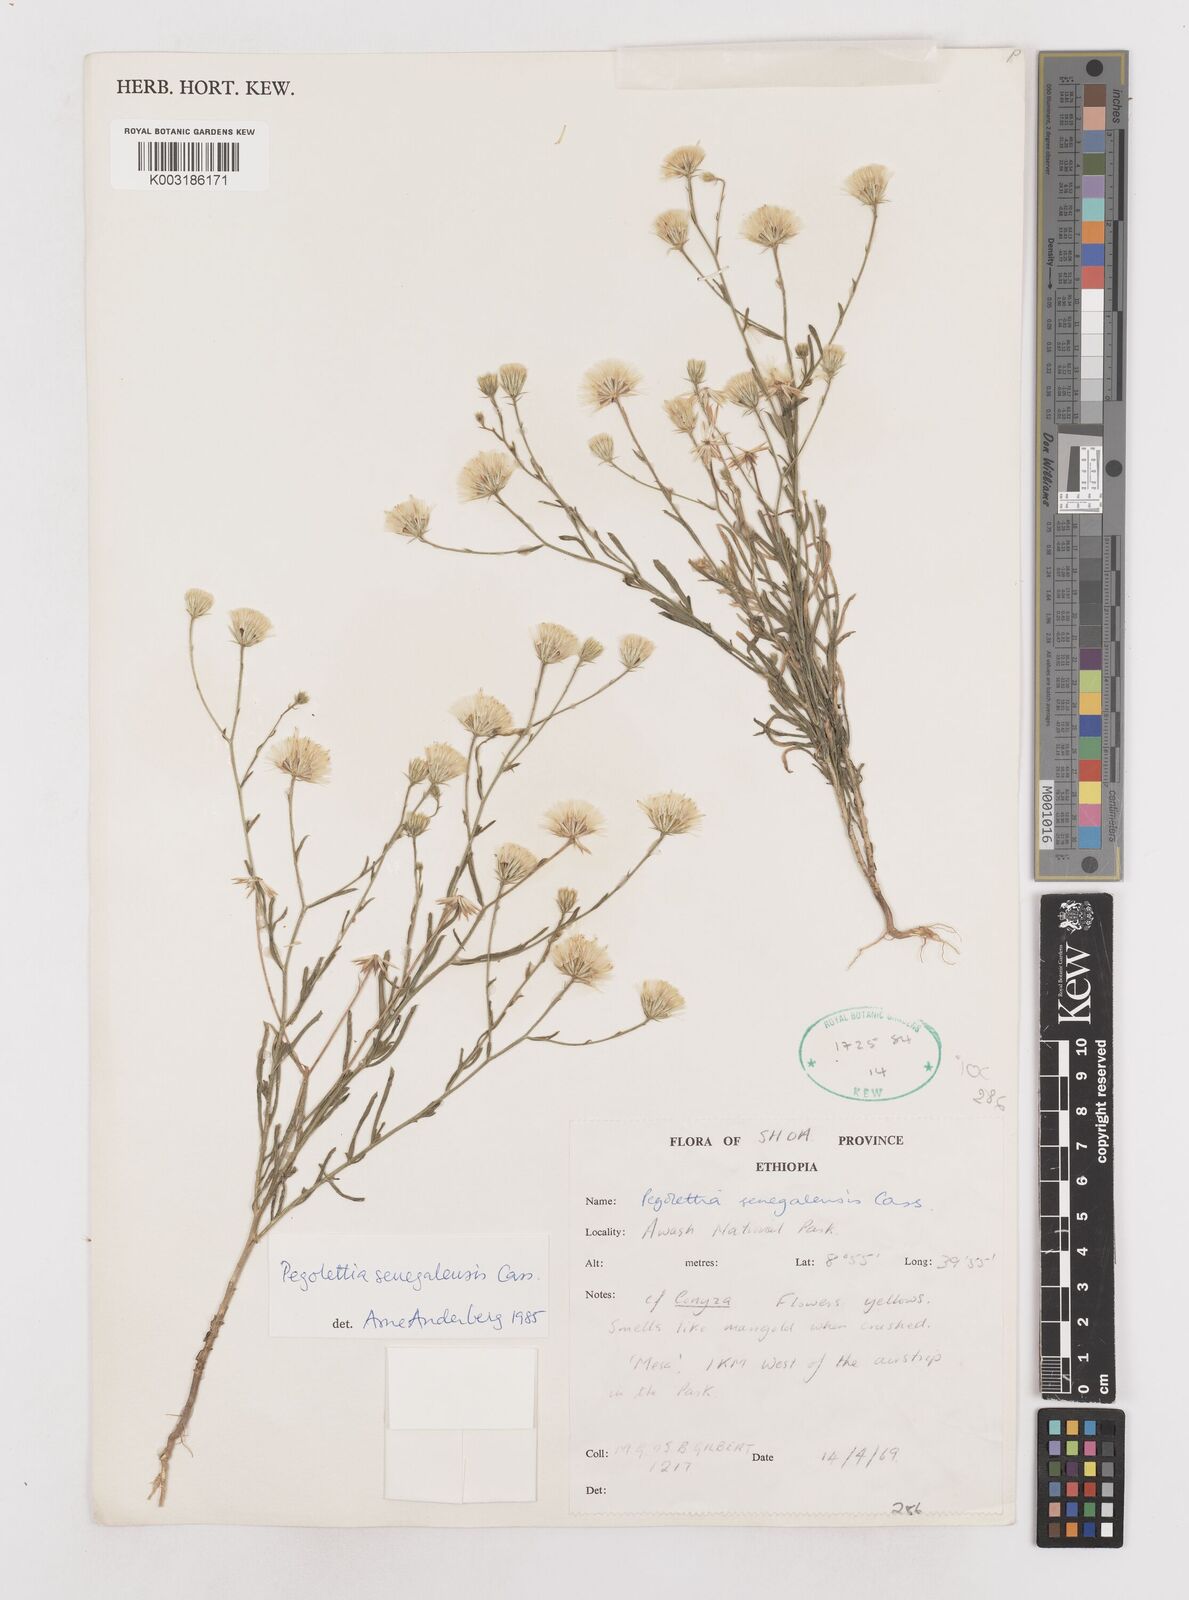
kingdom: Plantae
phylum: Tracheophyta
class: Magnoliopsida
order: Asterales
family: Asteraceae
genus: Pegolettia
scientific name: Pegolettia senegalensis
